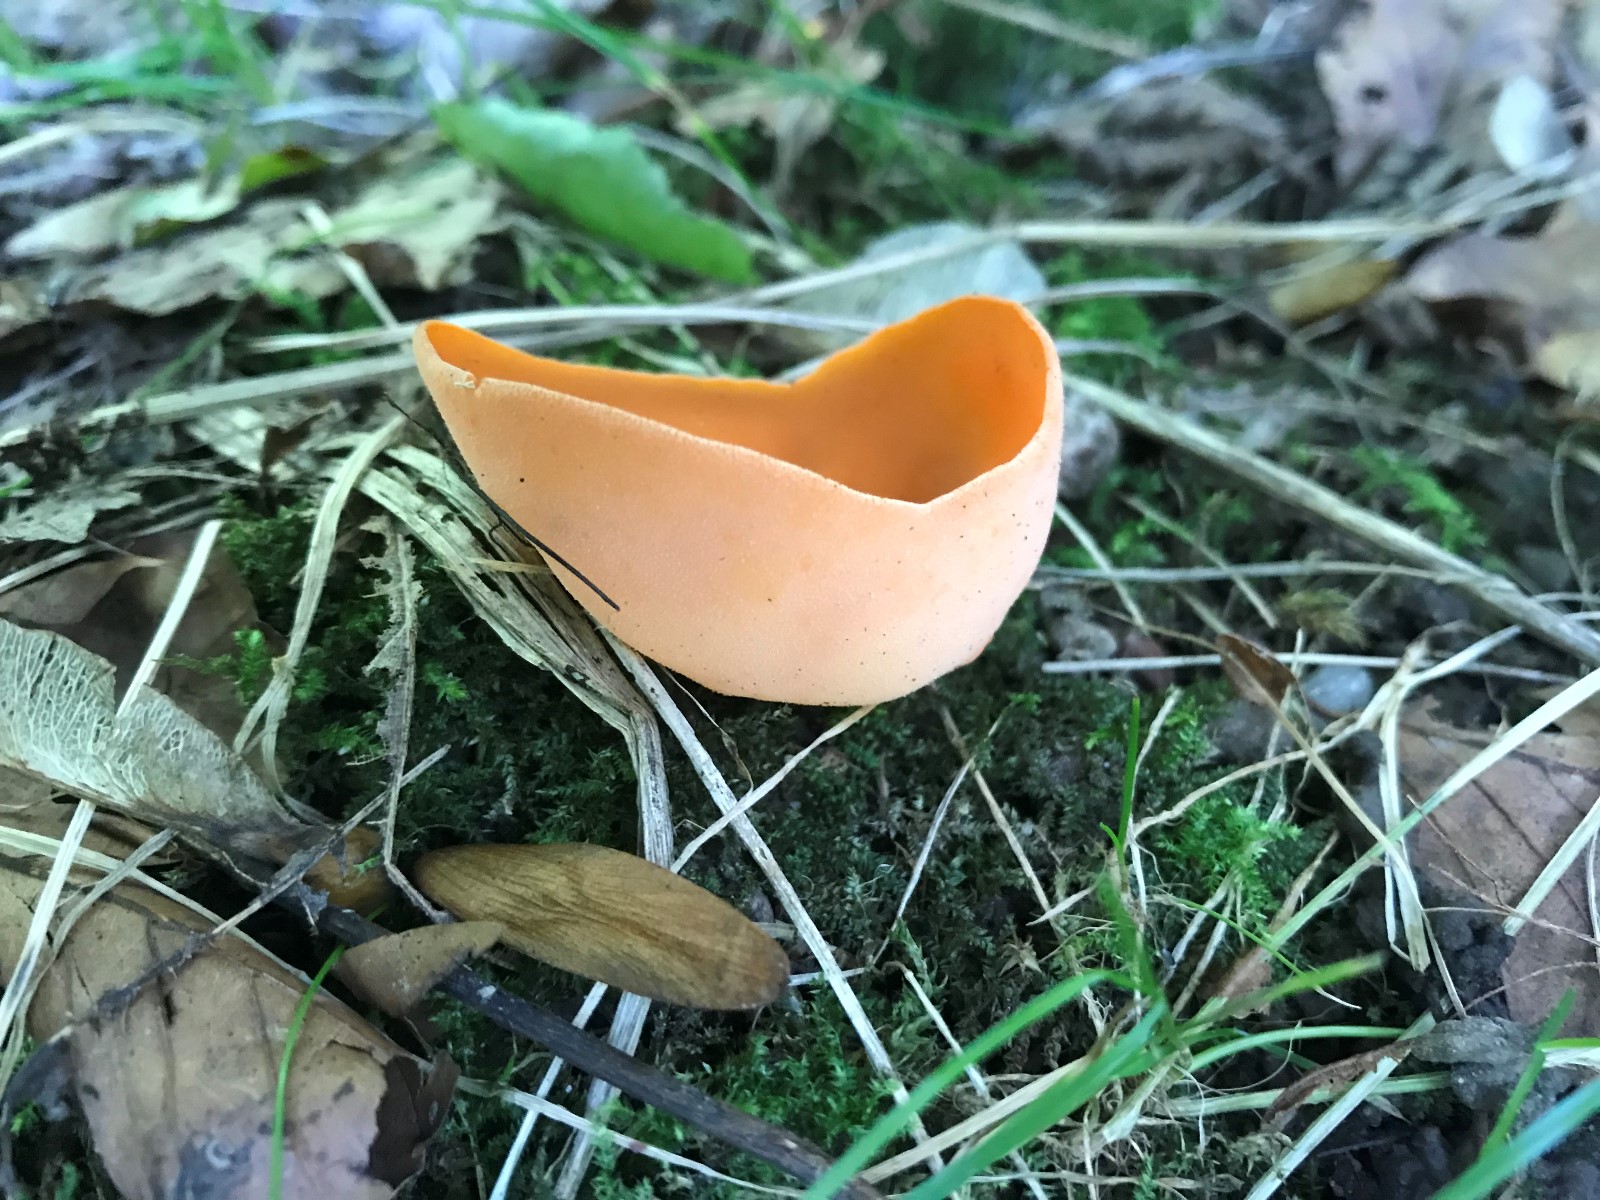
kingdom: Fungi
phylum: Ascomycota
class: Pezizomycetes
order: Pezizales
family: Pyronemataceae
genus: Aleuria
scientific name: Aleuria aurantia
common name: almindelig orangebæger
